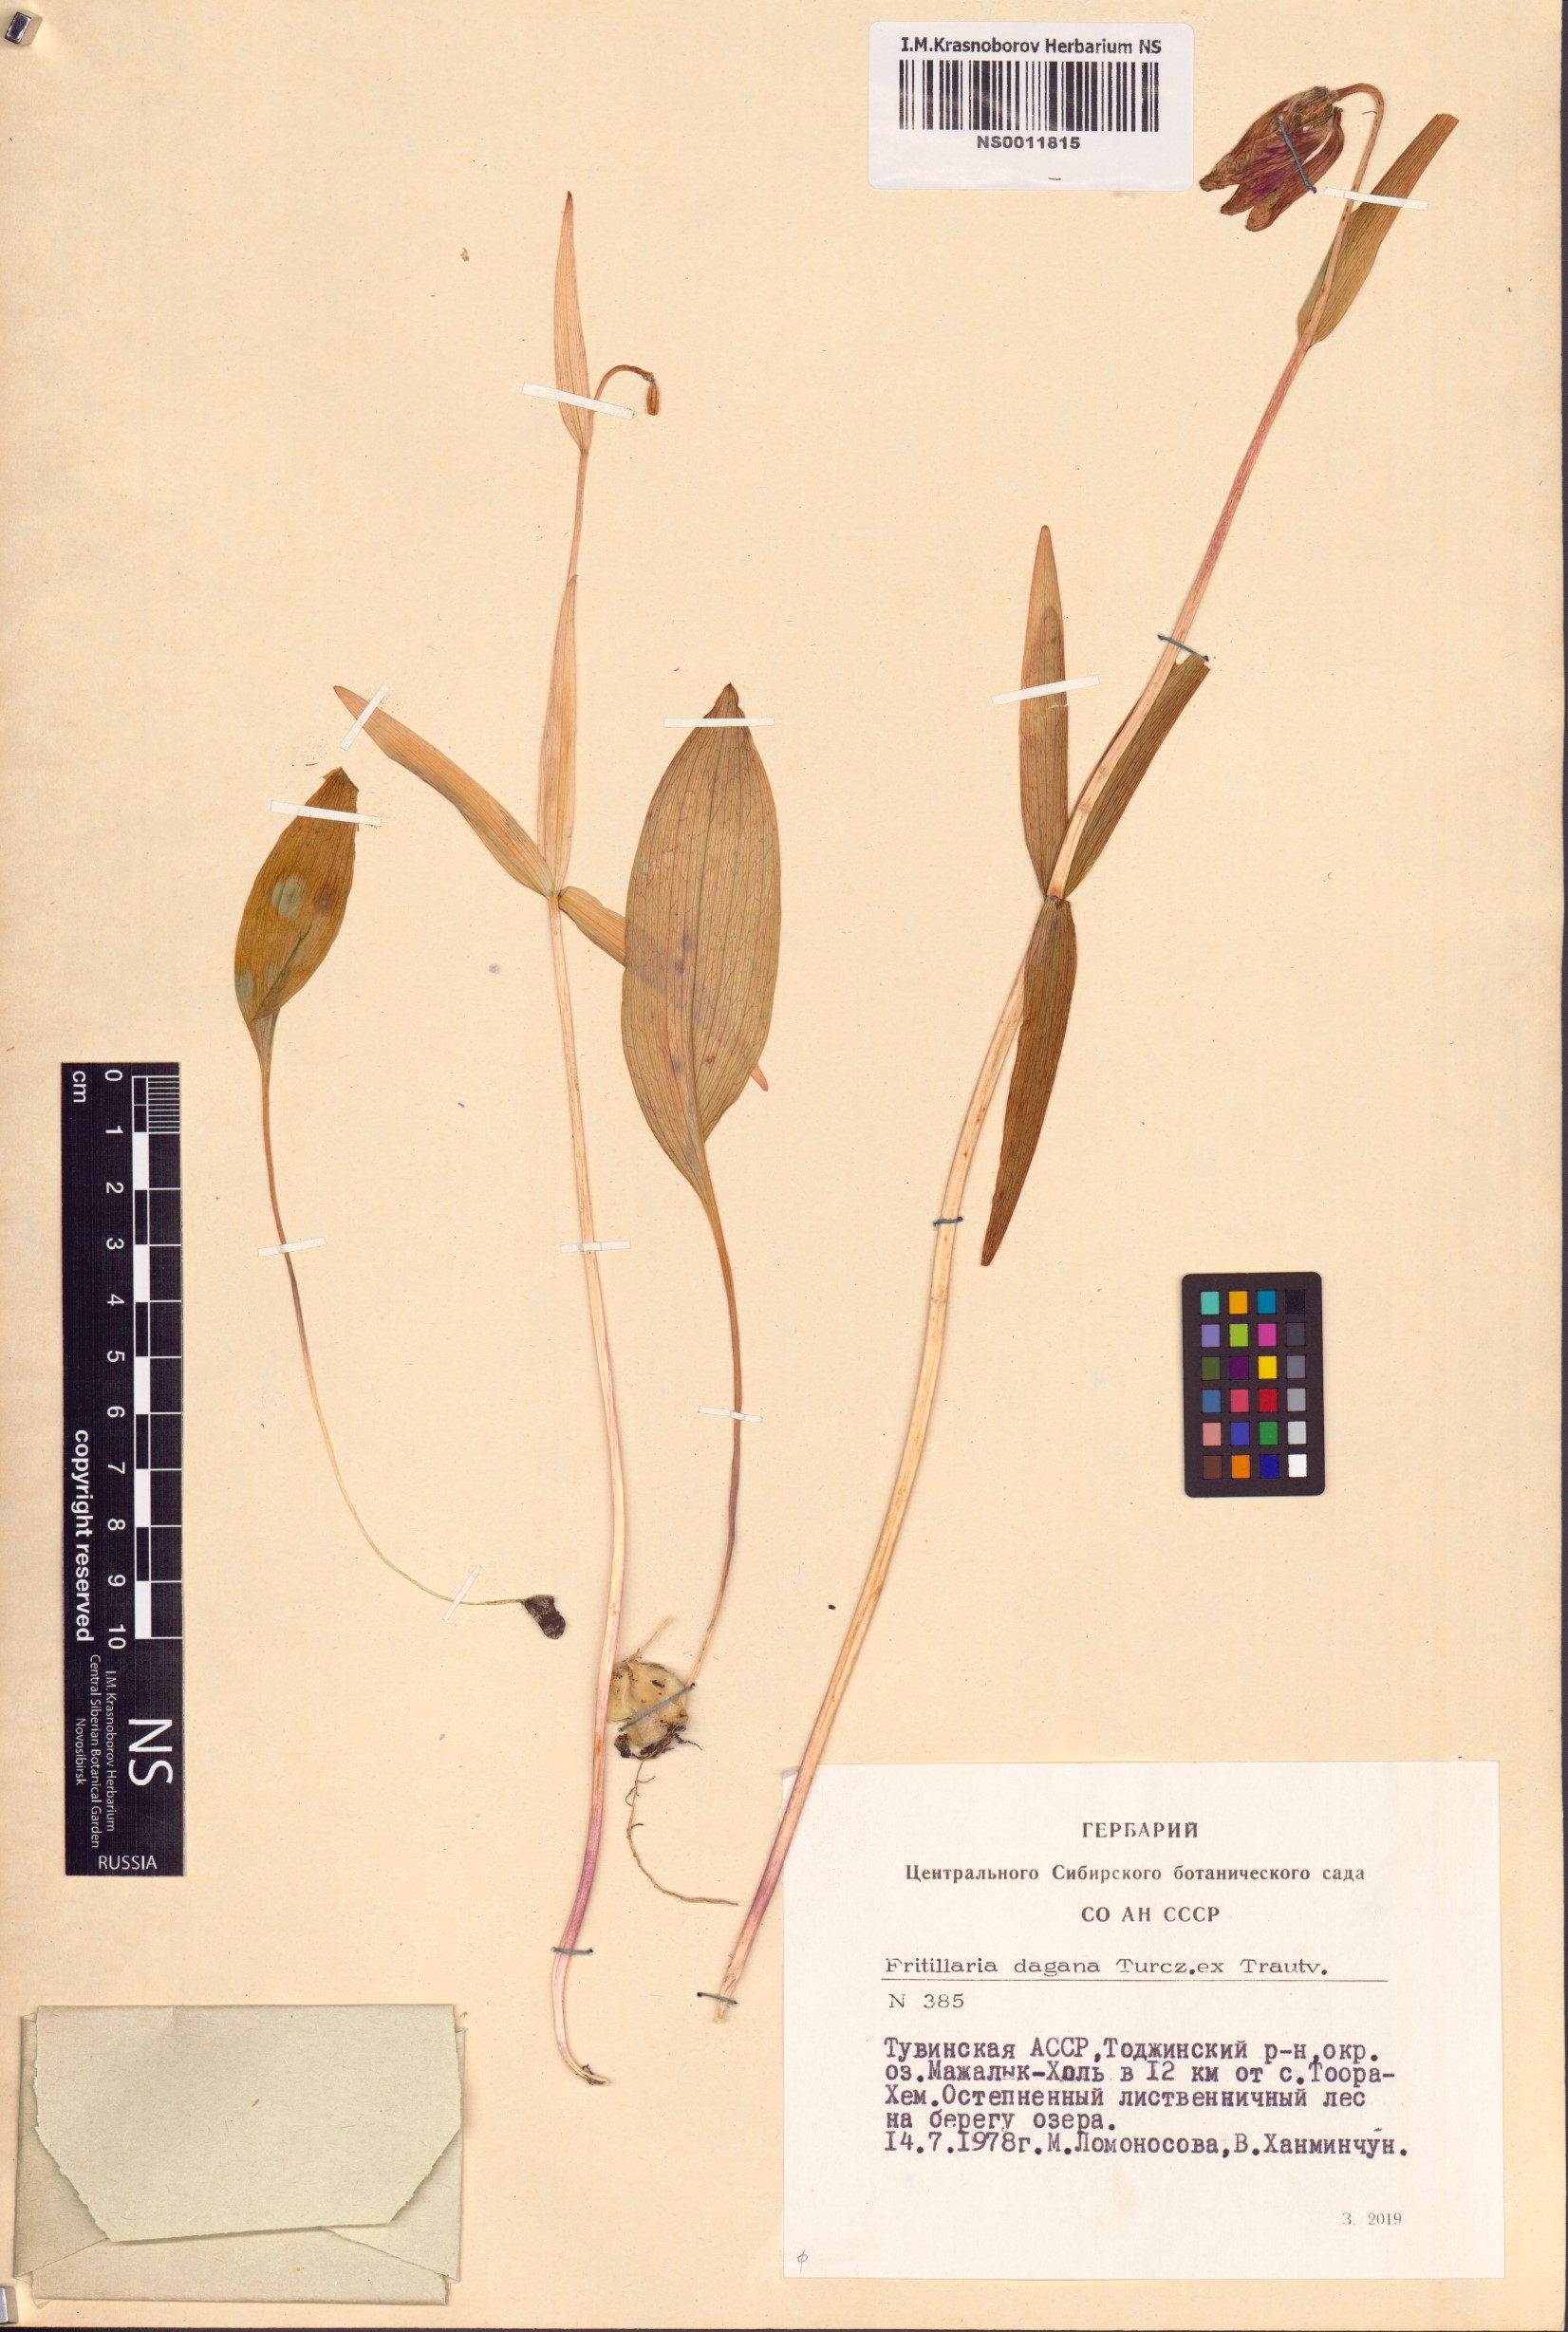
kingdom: Plantae
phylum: Tracheophyta
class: Liliopsida
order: Liliales
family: Liliaceae
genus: Fritillaria
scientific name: Fritillaria dagana
